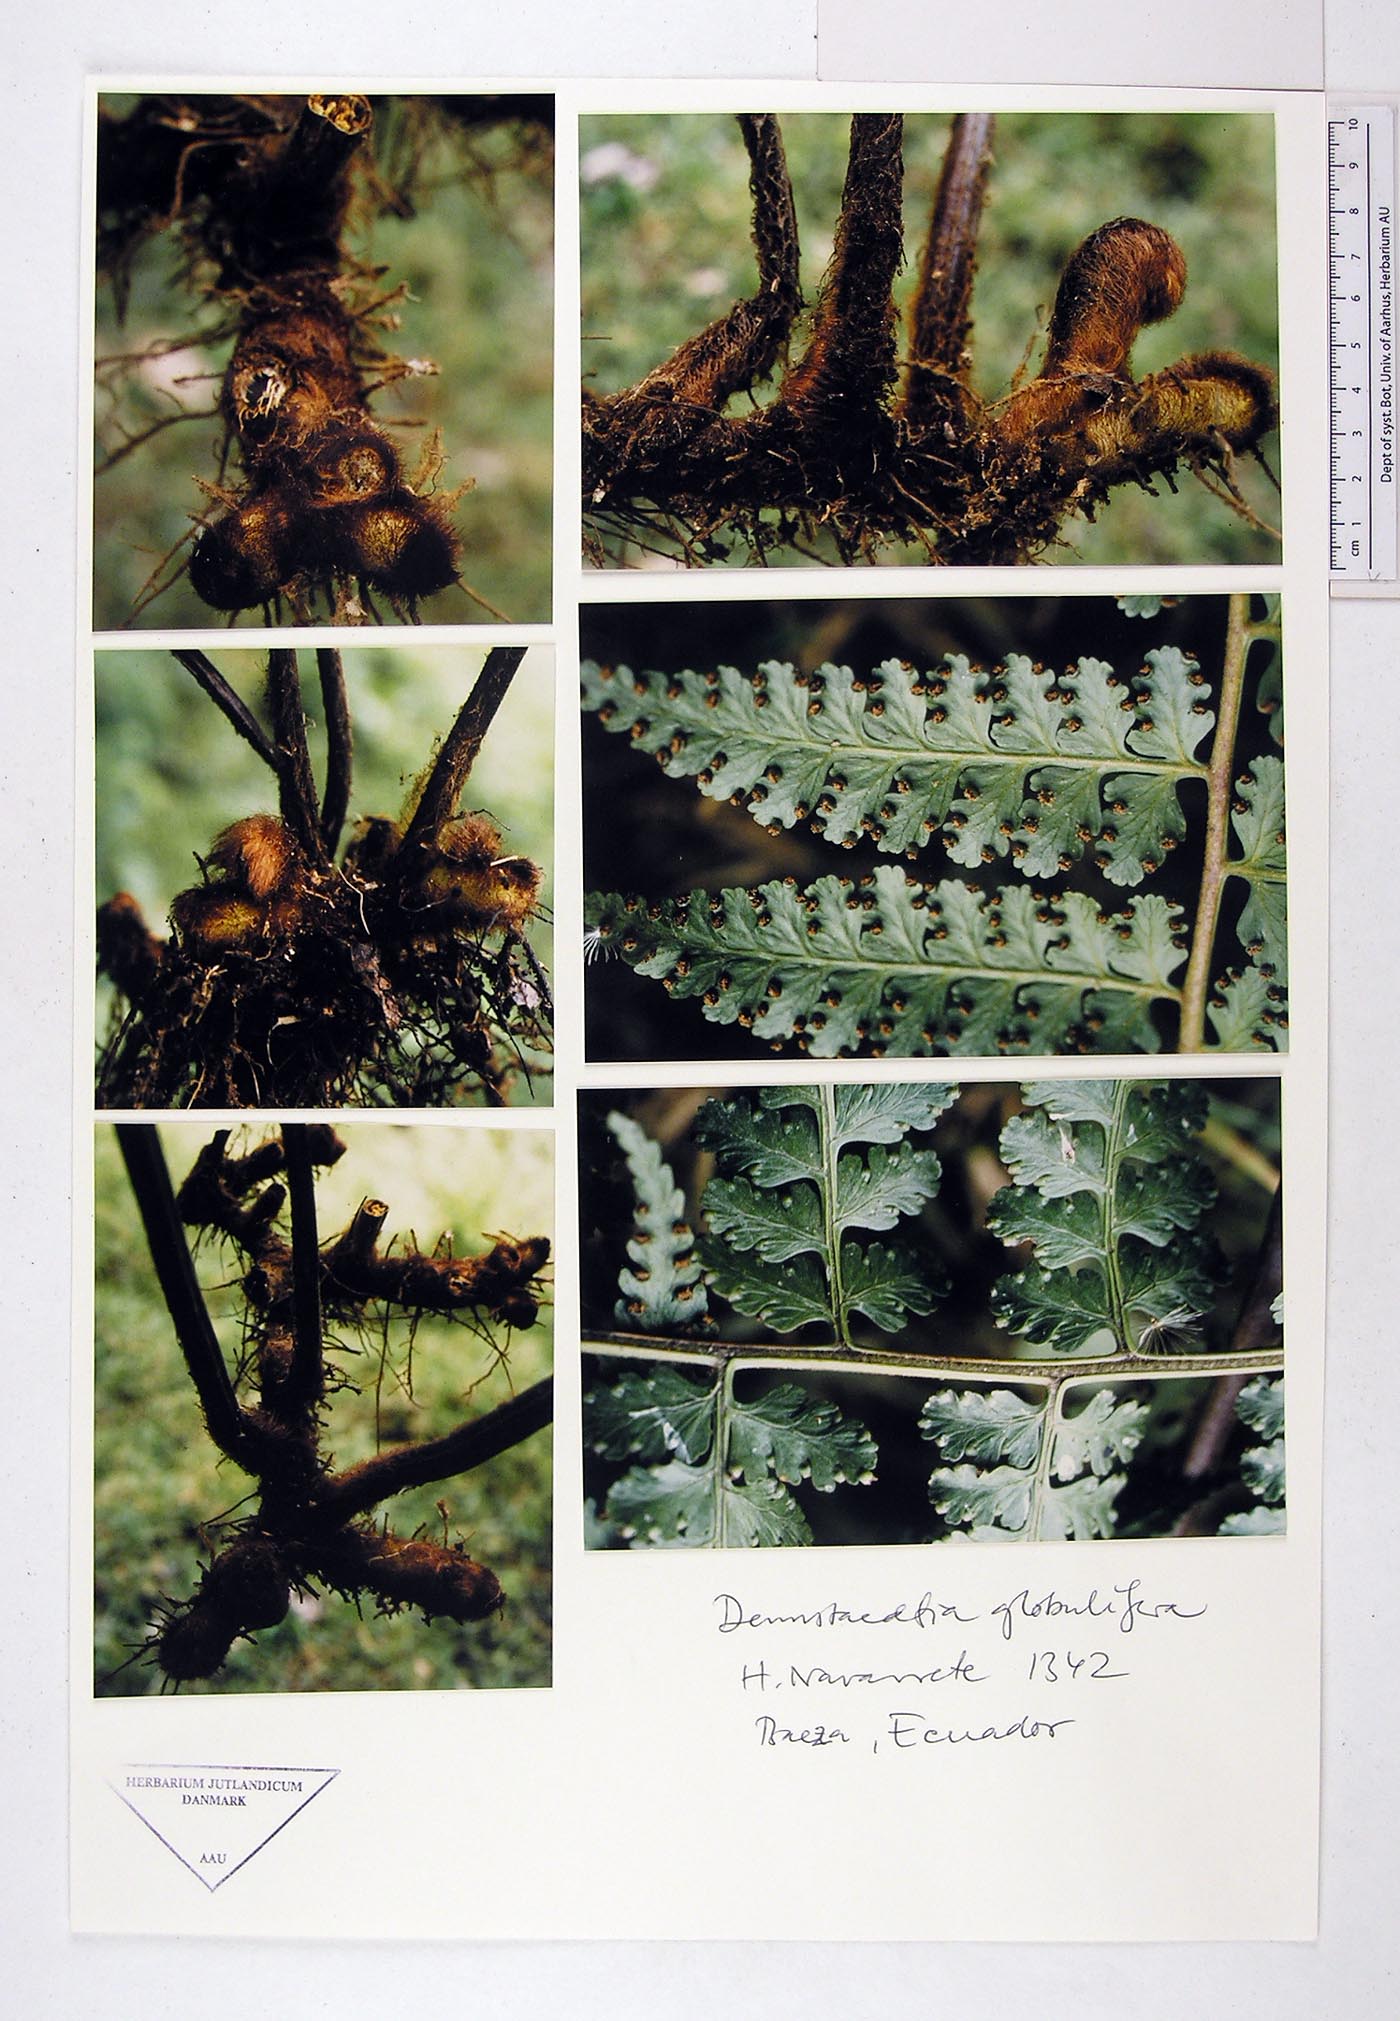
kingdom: Plantae
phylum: Tracheophyta
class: Polypodiopsida
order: Polypodiales
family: Dennstaedtiaceae
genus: Mucura
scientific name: Mucura globulifera
